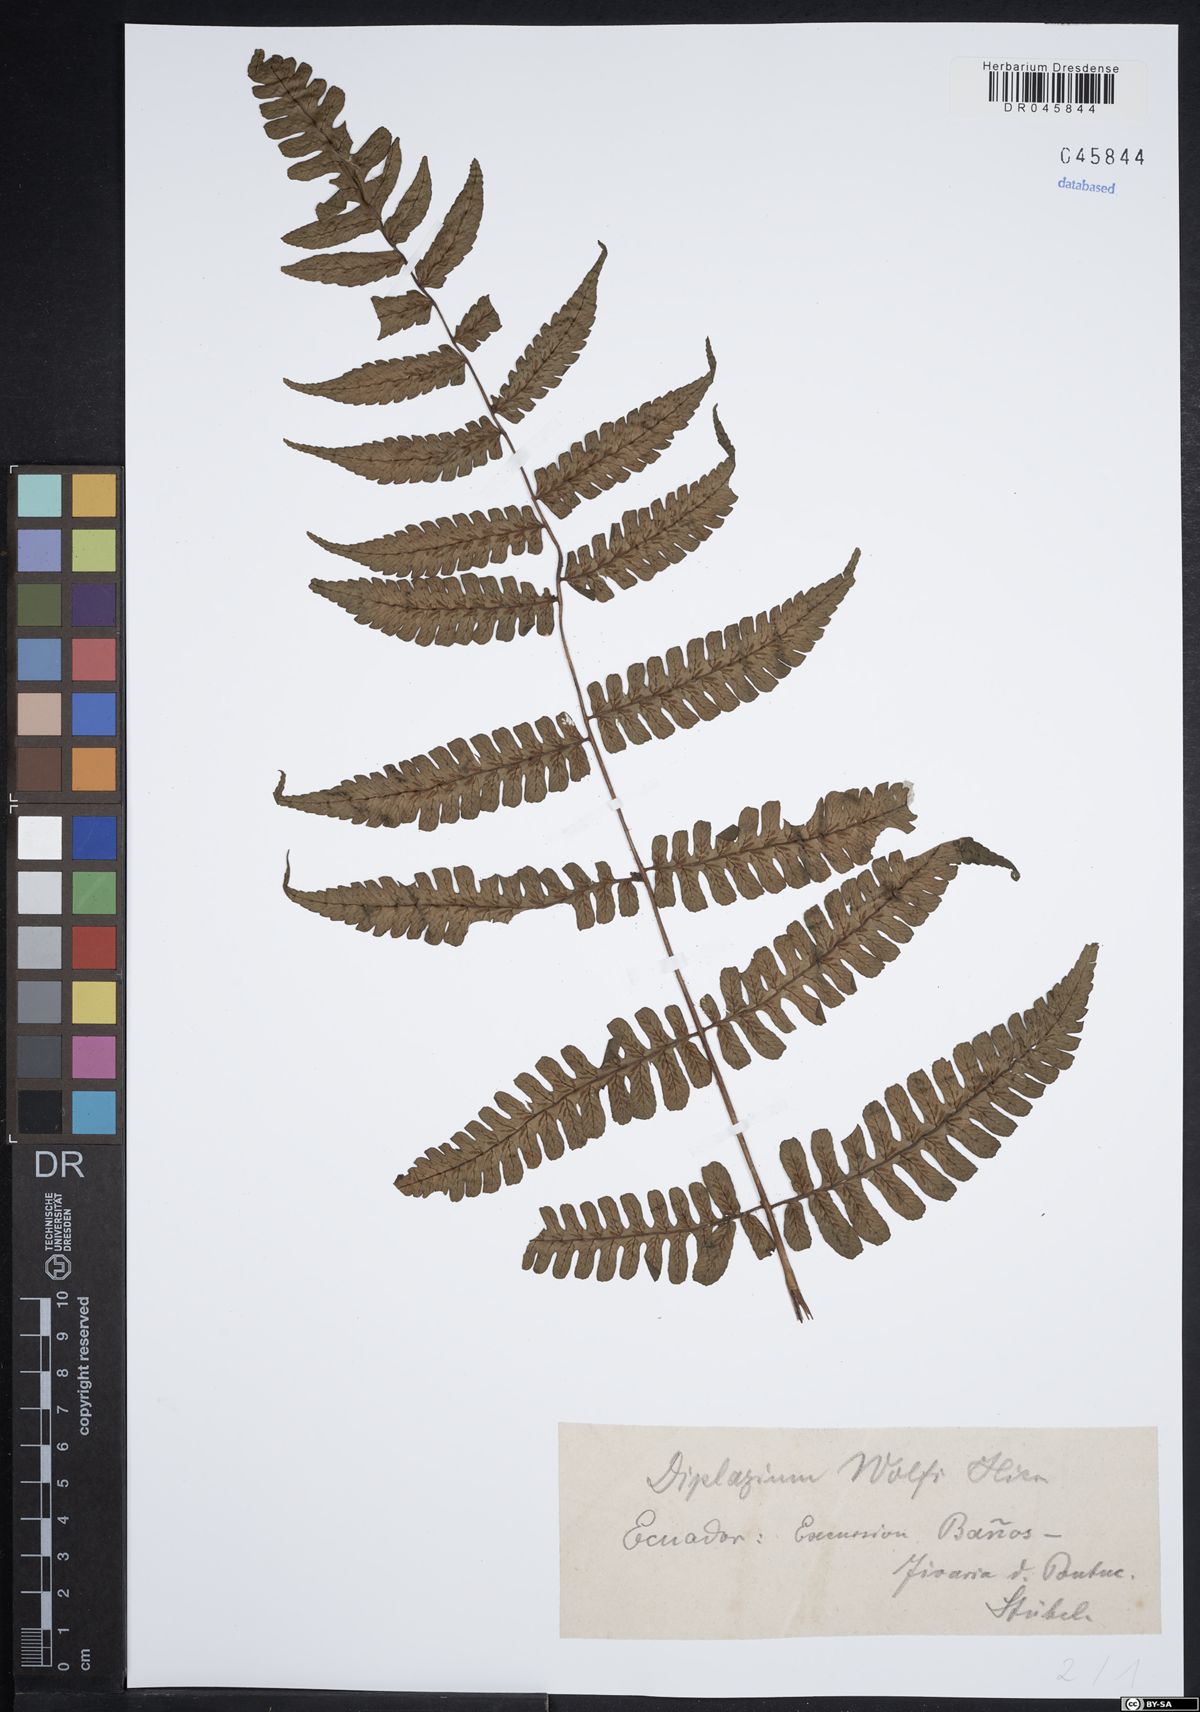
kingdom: Plantae
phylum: Tracheophyta
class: Polypodiopsida
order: Polypodiales
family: Athyriaceae
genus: Diplazium
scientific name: Diplazium wolfii
